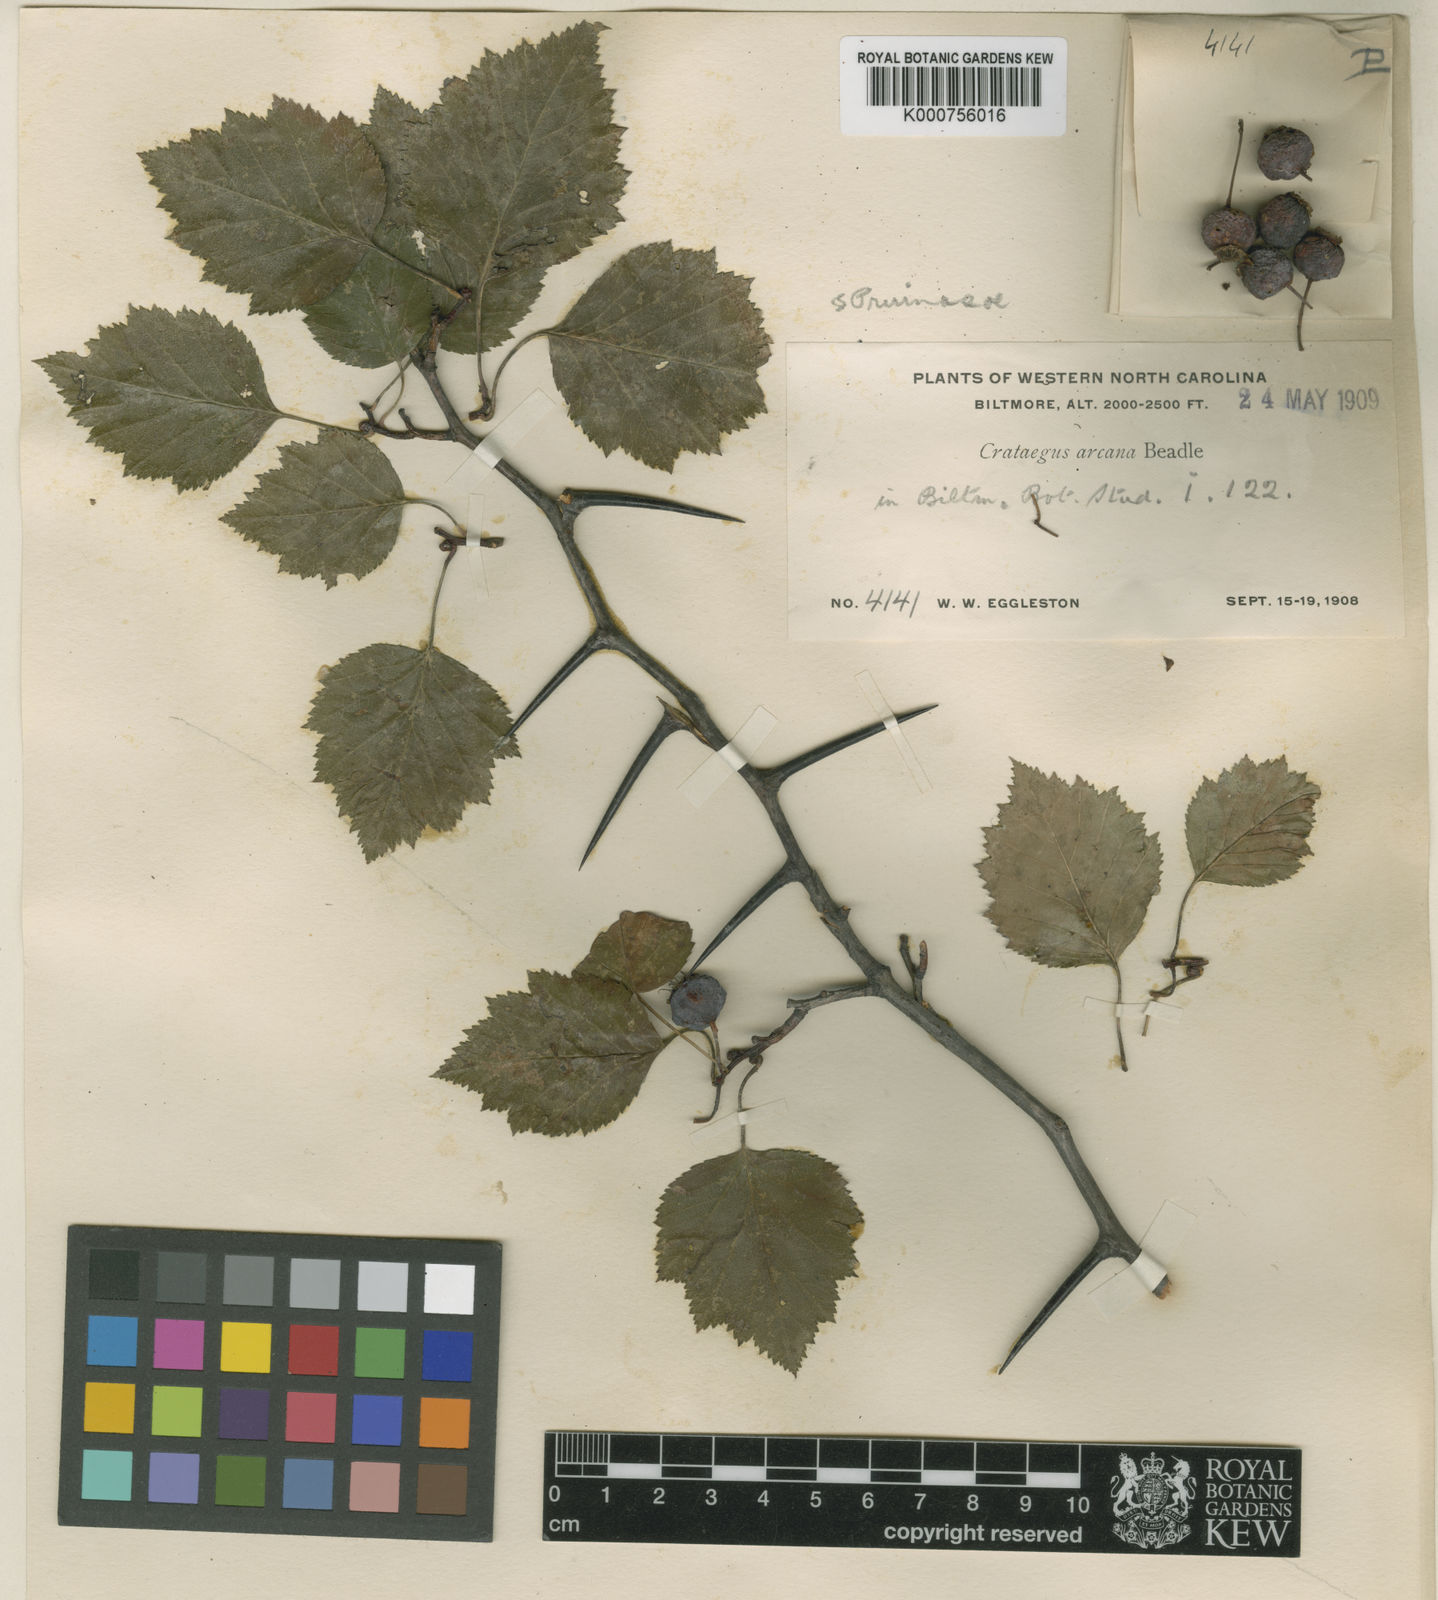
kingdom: Plantae
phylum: Tracheophyta
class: Magnoliopsida
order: Rosales
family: Rosaceae
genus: Crataegus
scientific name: Crataegus pruinosa
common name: Waxy-fruit hawthorn
